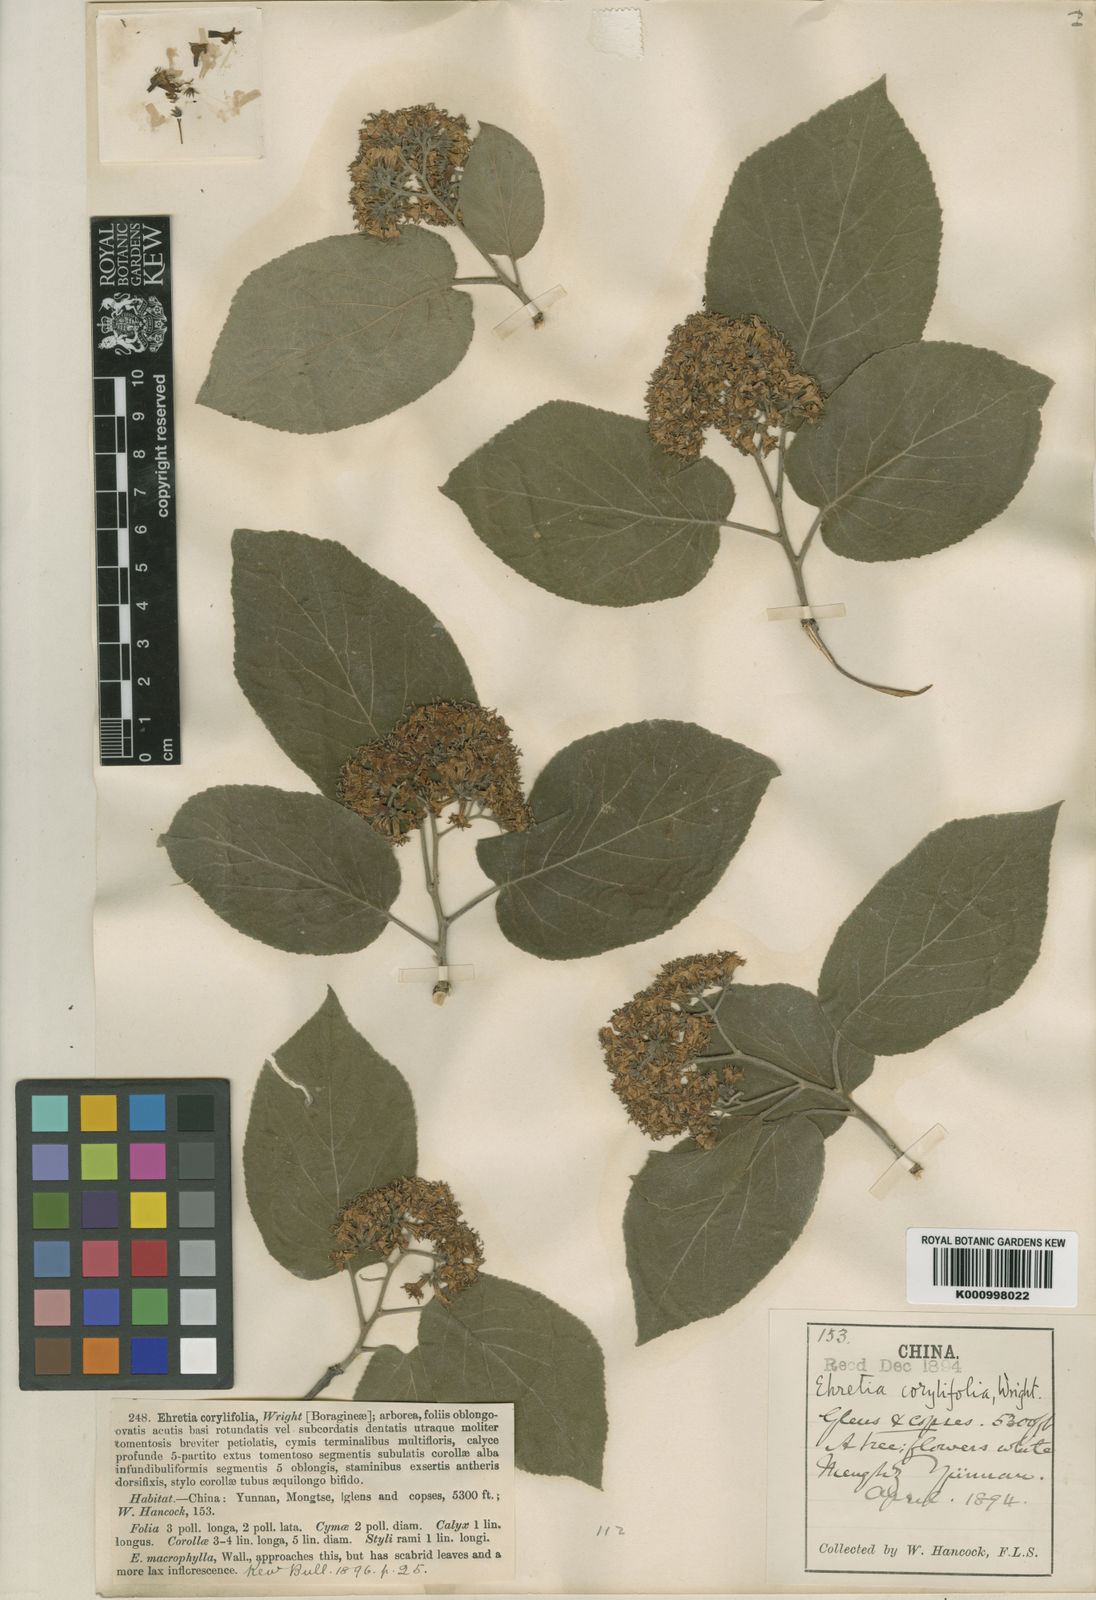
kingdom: Plantae
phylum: Tracheophyta
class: Magnoliopsida
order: Boraginales
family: Ehretiaceae
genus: Ehretia
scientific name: Ehretia corylifolia
